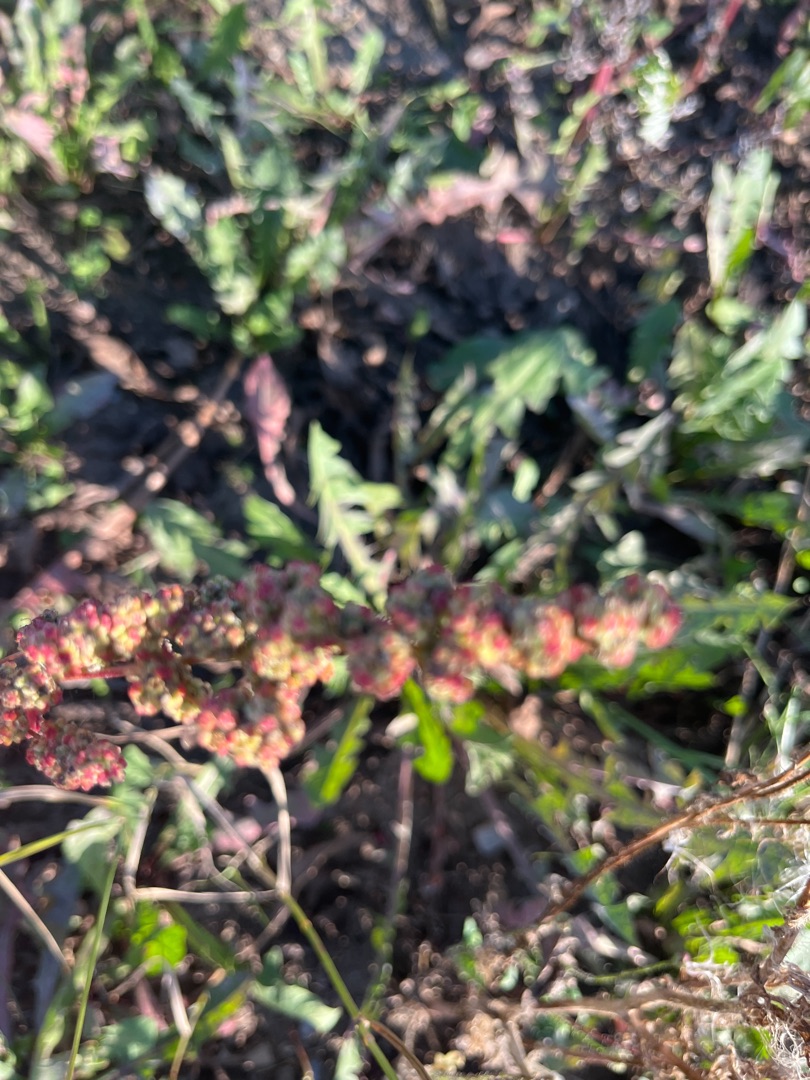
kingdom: Plantae
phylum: Tracheophyta
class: Magnoliopsida
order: Caryophyllales
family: Amaranthaceae
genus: Chenopodium
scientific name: Chenopodium album
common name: Hvidmelet gåsefod
